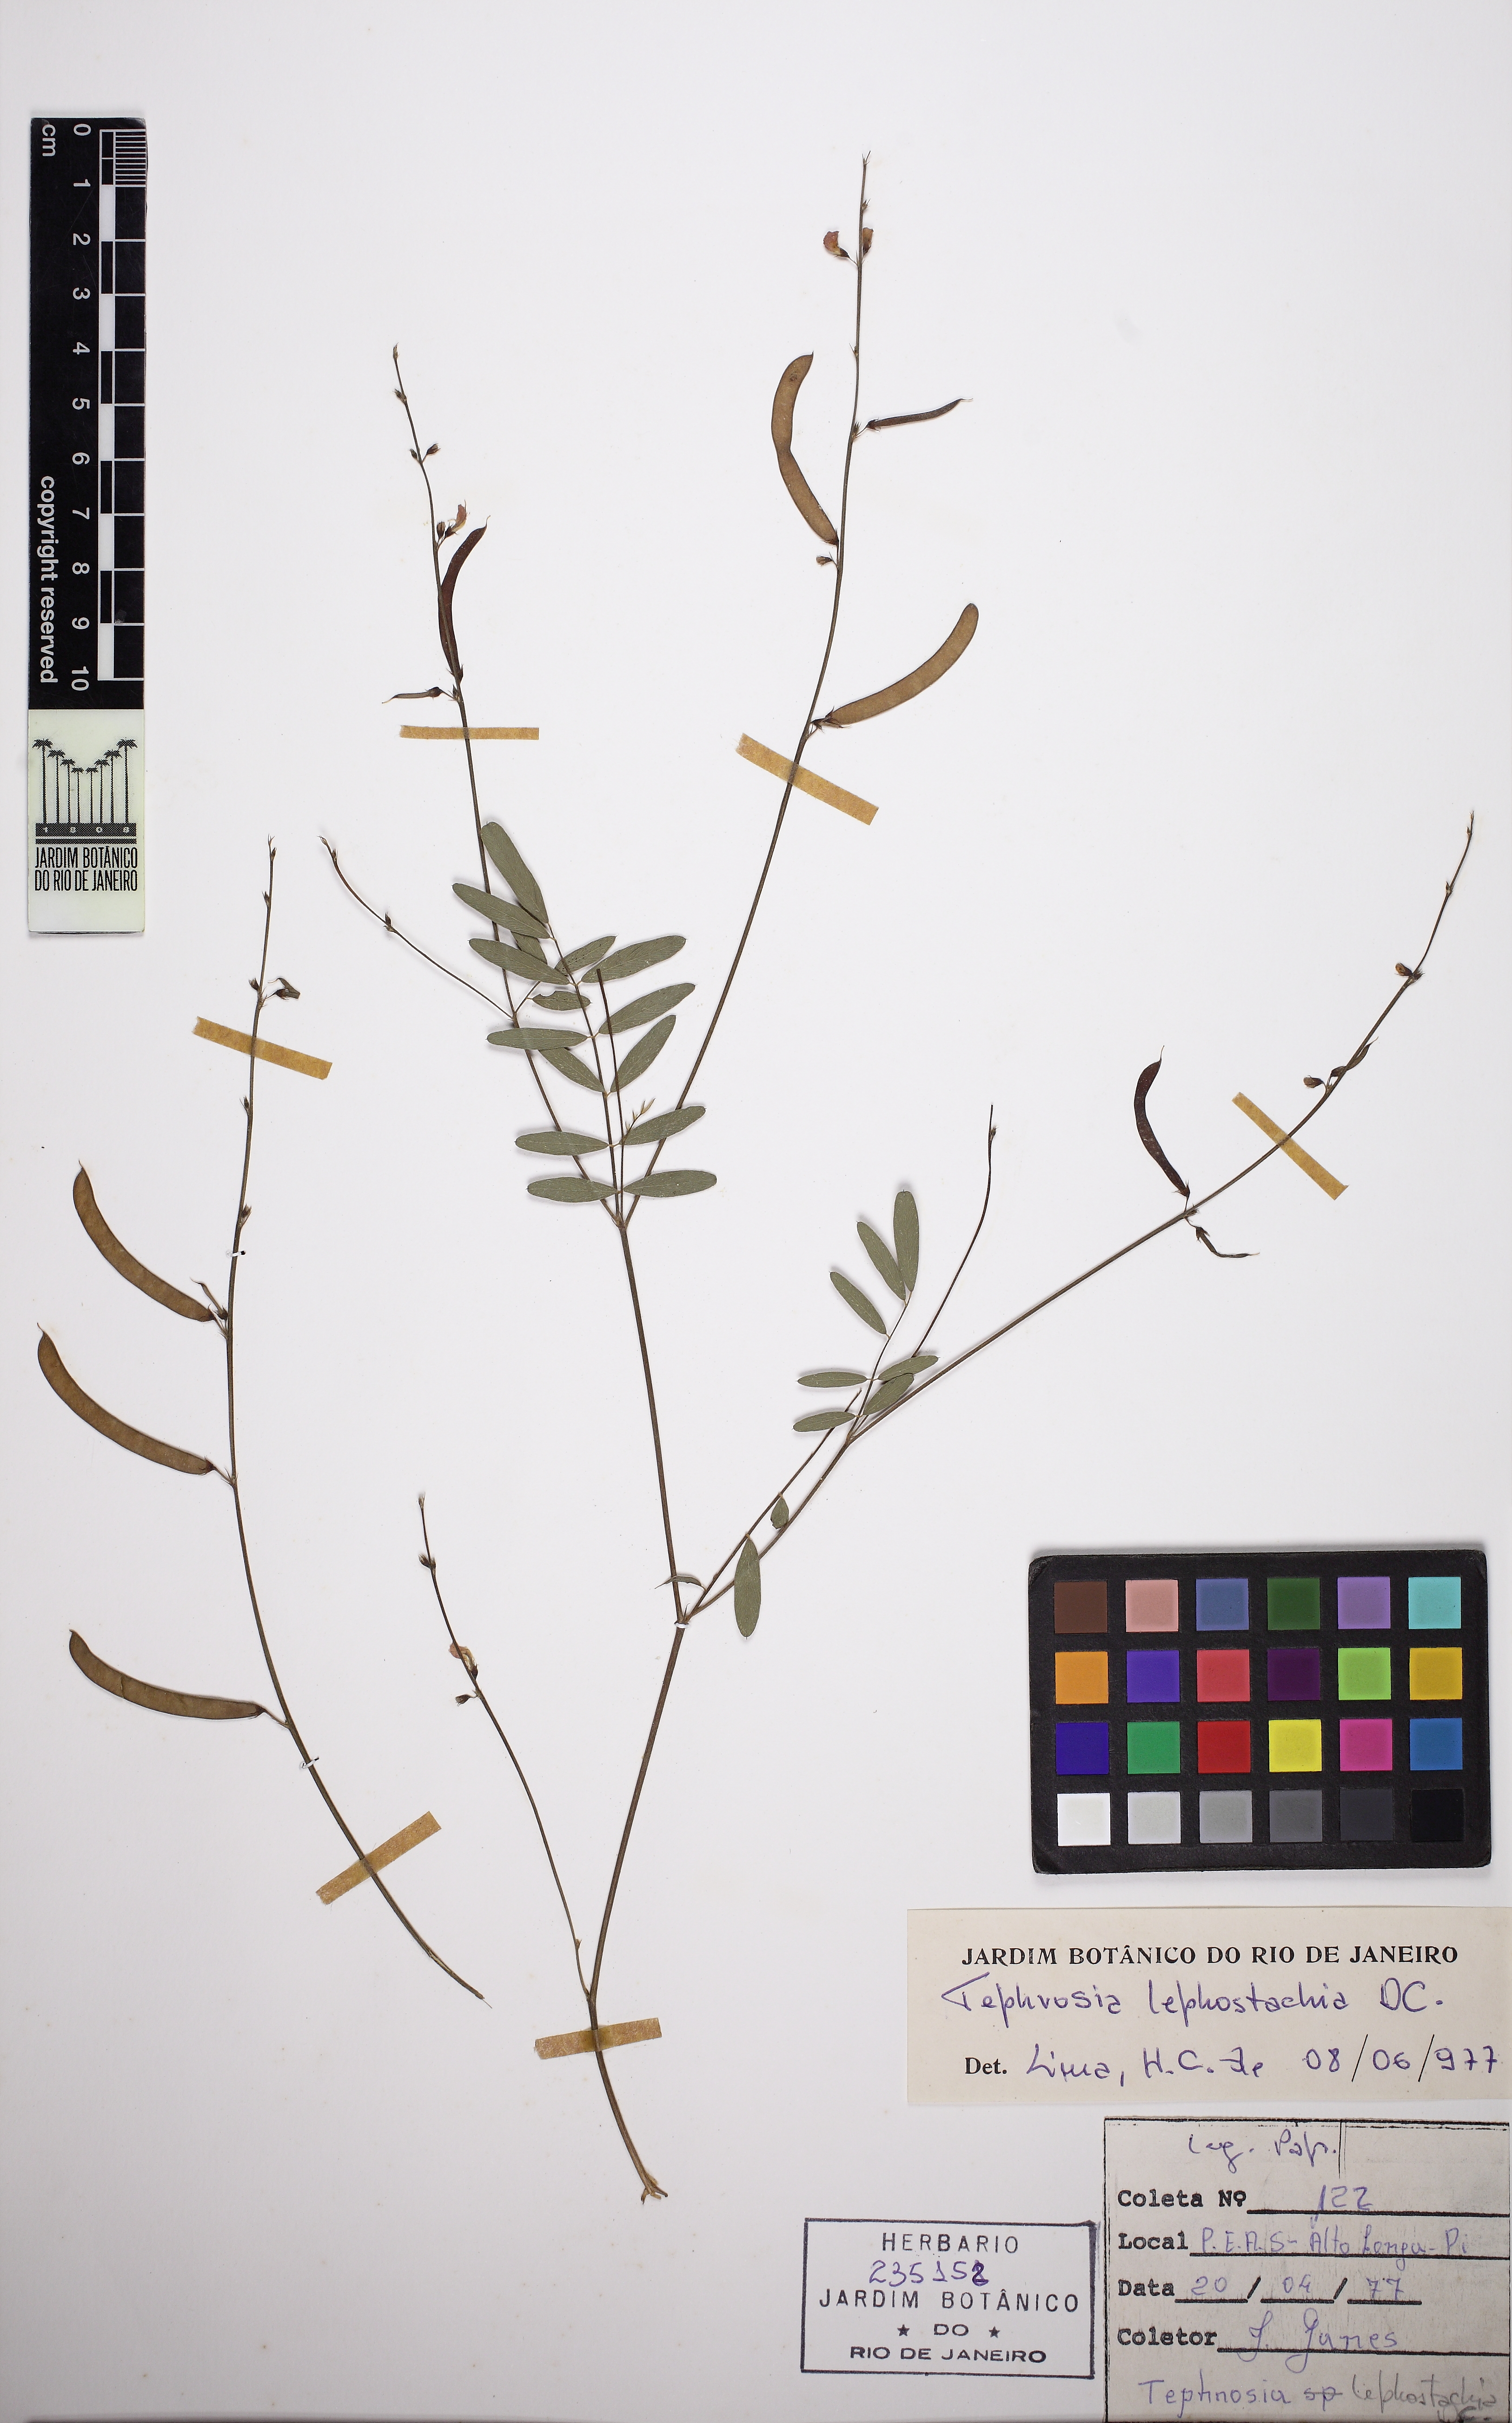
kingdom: Plantae
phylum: Tracheophyta
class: Magnoliopsida
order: Fabales
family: Fabaceae
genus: Tephrosia
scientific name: Tephrosia purpurea
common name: Fishpoison
